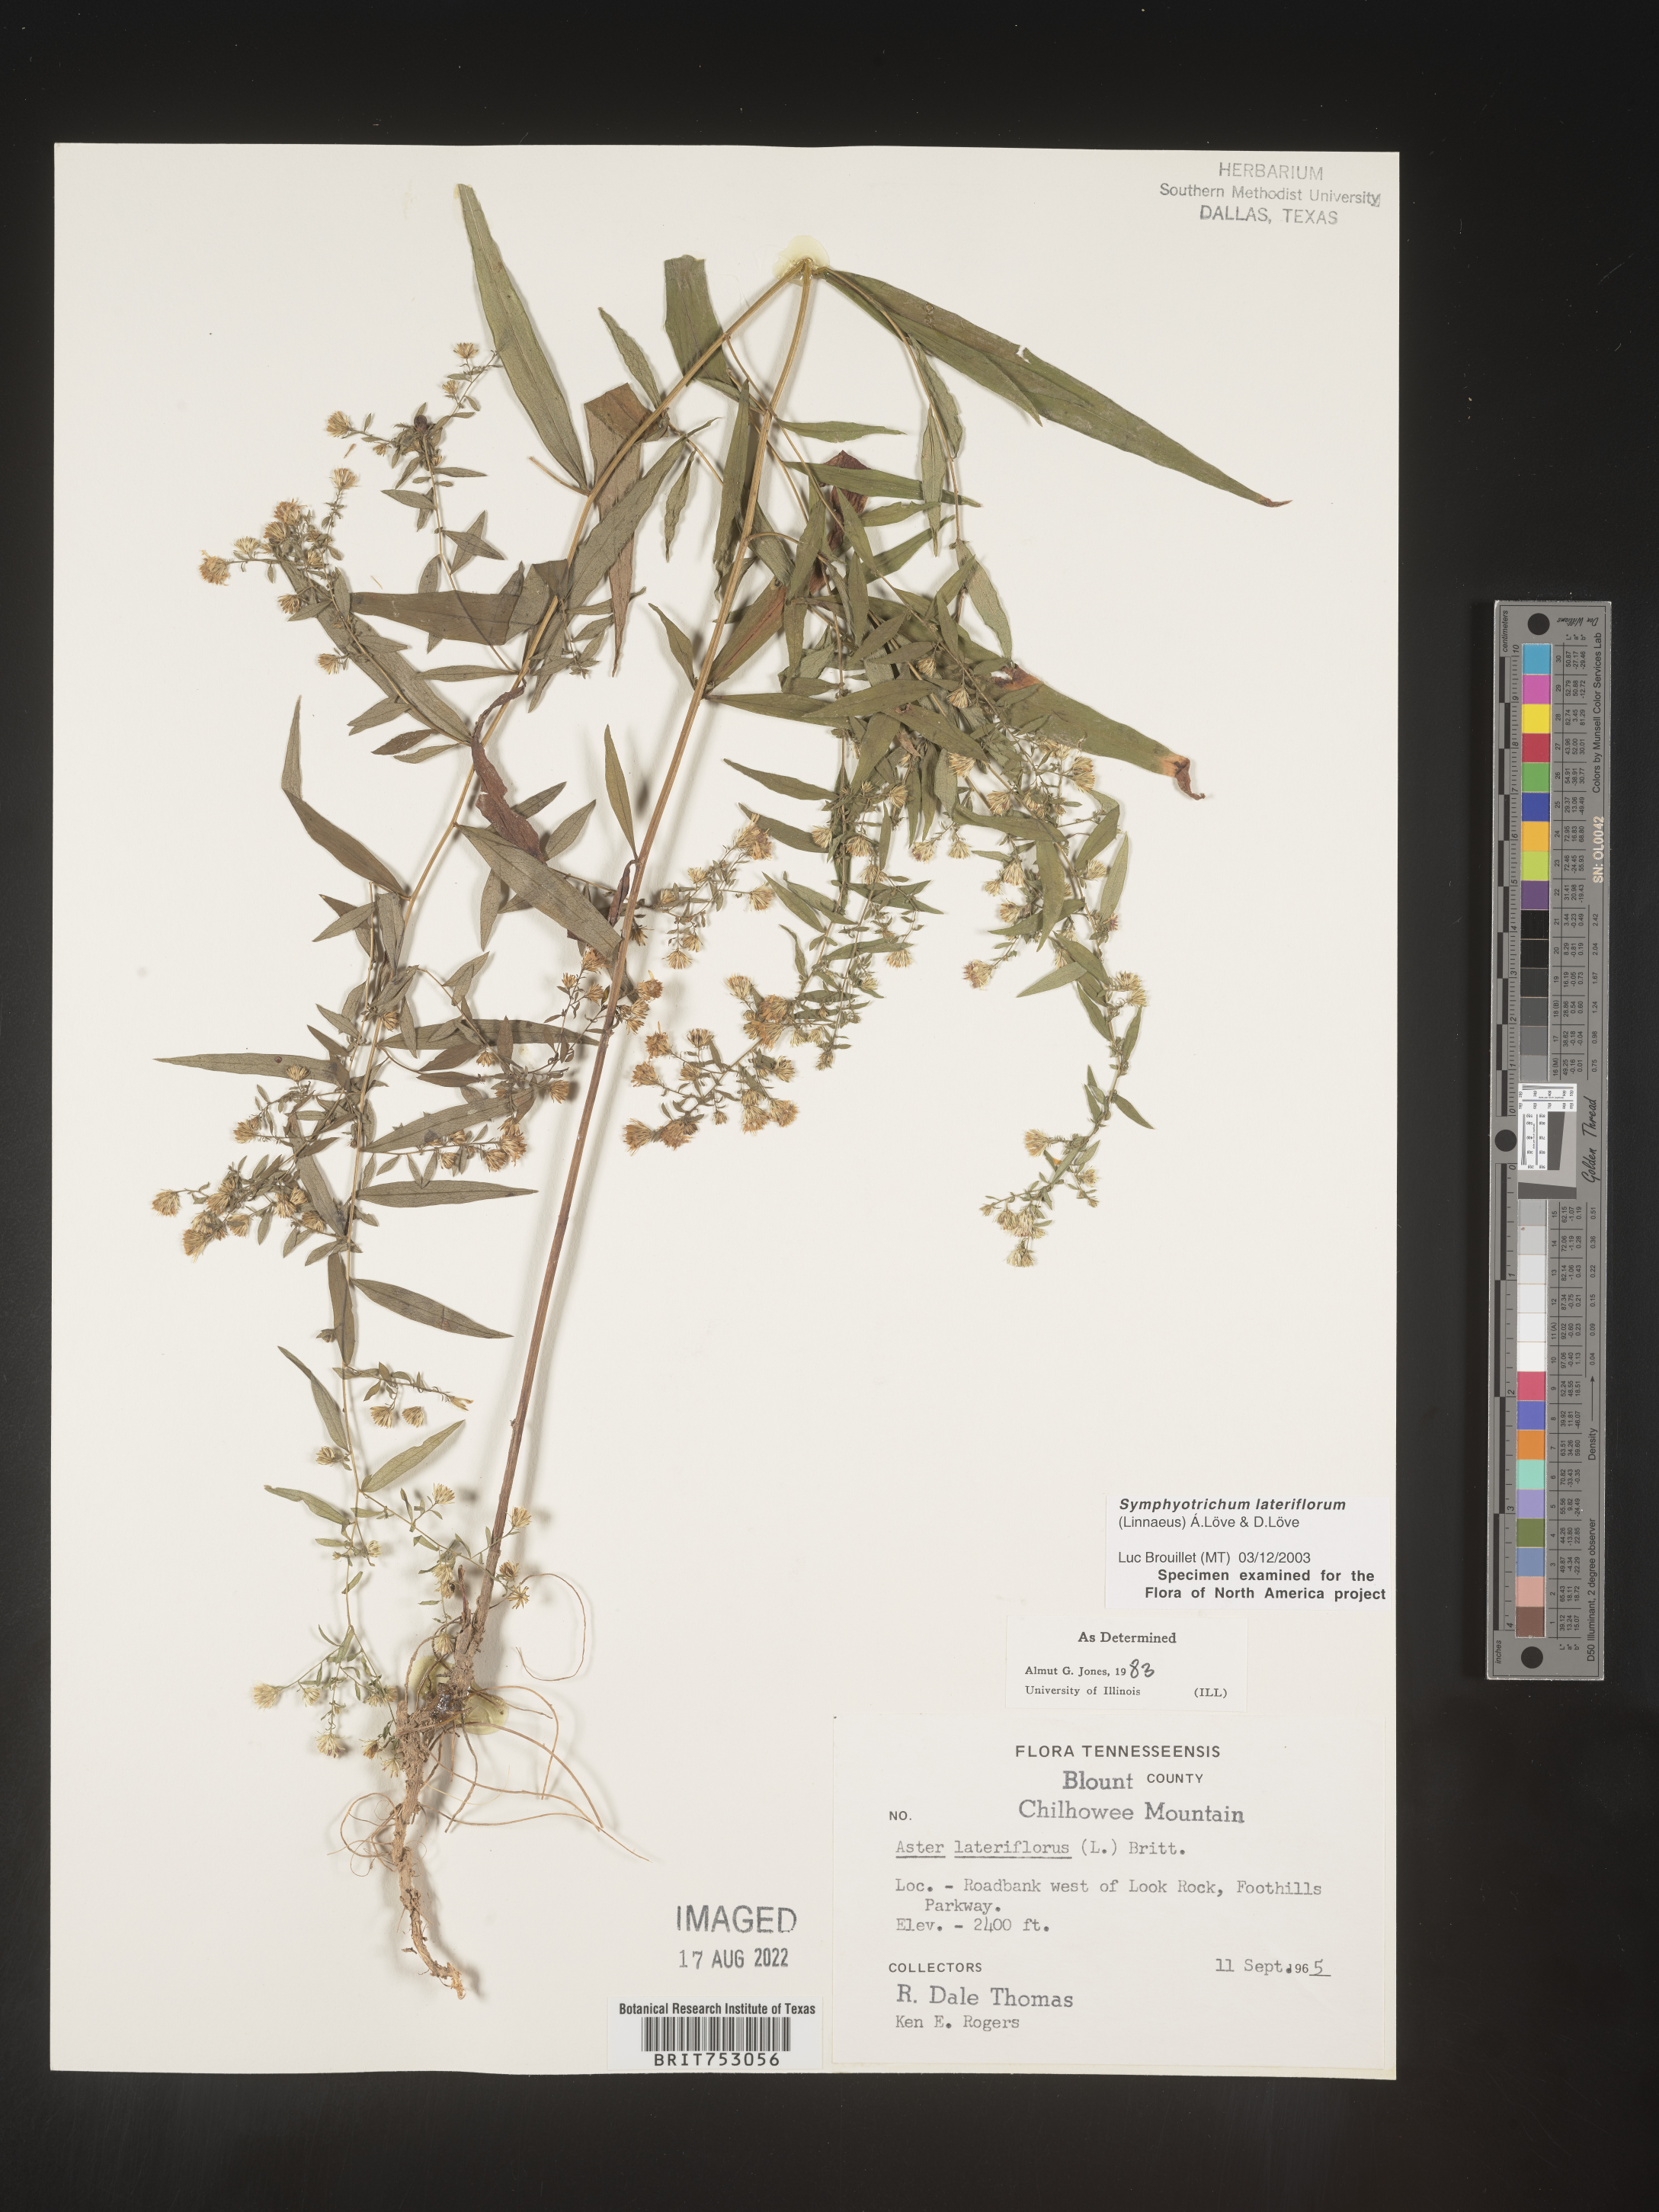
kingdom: Plantae
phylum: Tracheophyta
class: Magnoliopsida
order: Asterales
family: Asteraceae
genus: Symphyotrichum
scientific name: Symphyotrichum lateriflorum
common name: Calico aster
